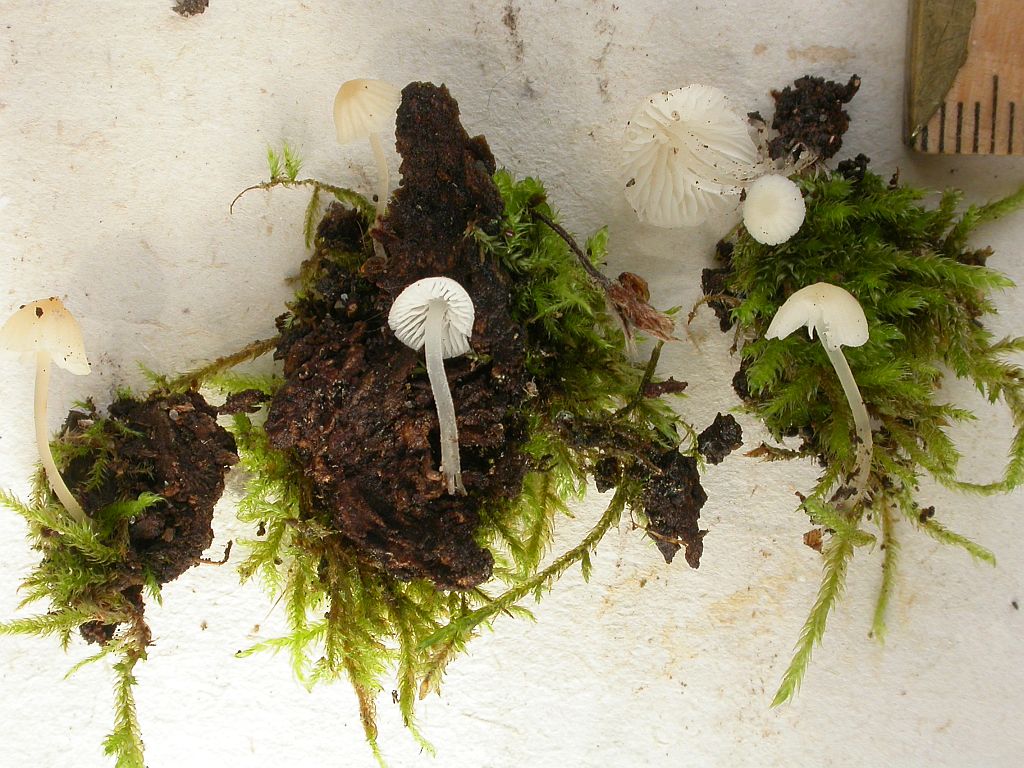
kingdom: Fungi
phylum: Basidiomycota
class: Agaricomycetes
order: Agaricales
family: Porotheleaceae
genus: Phloeomana
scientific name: Phloeomana minutula
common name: bleg huesvamp
